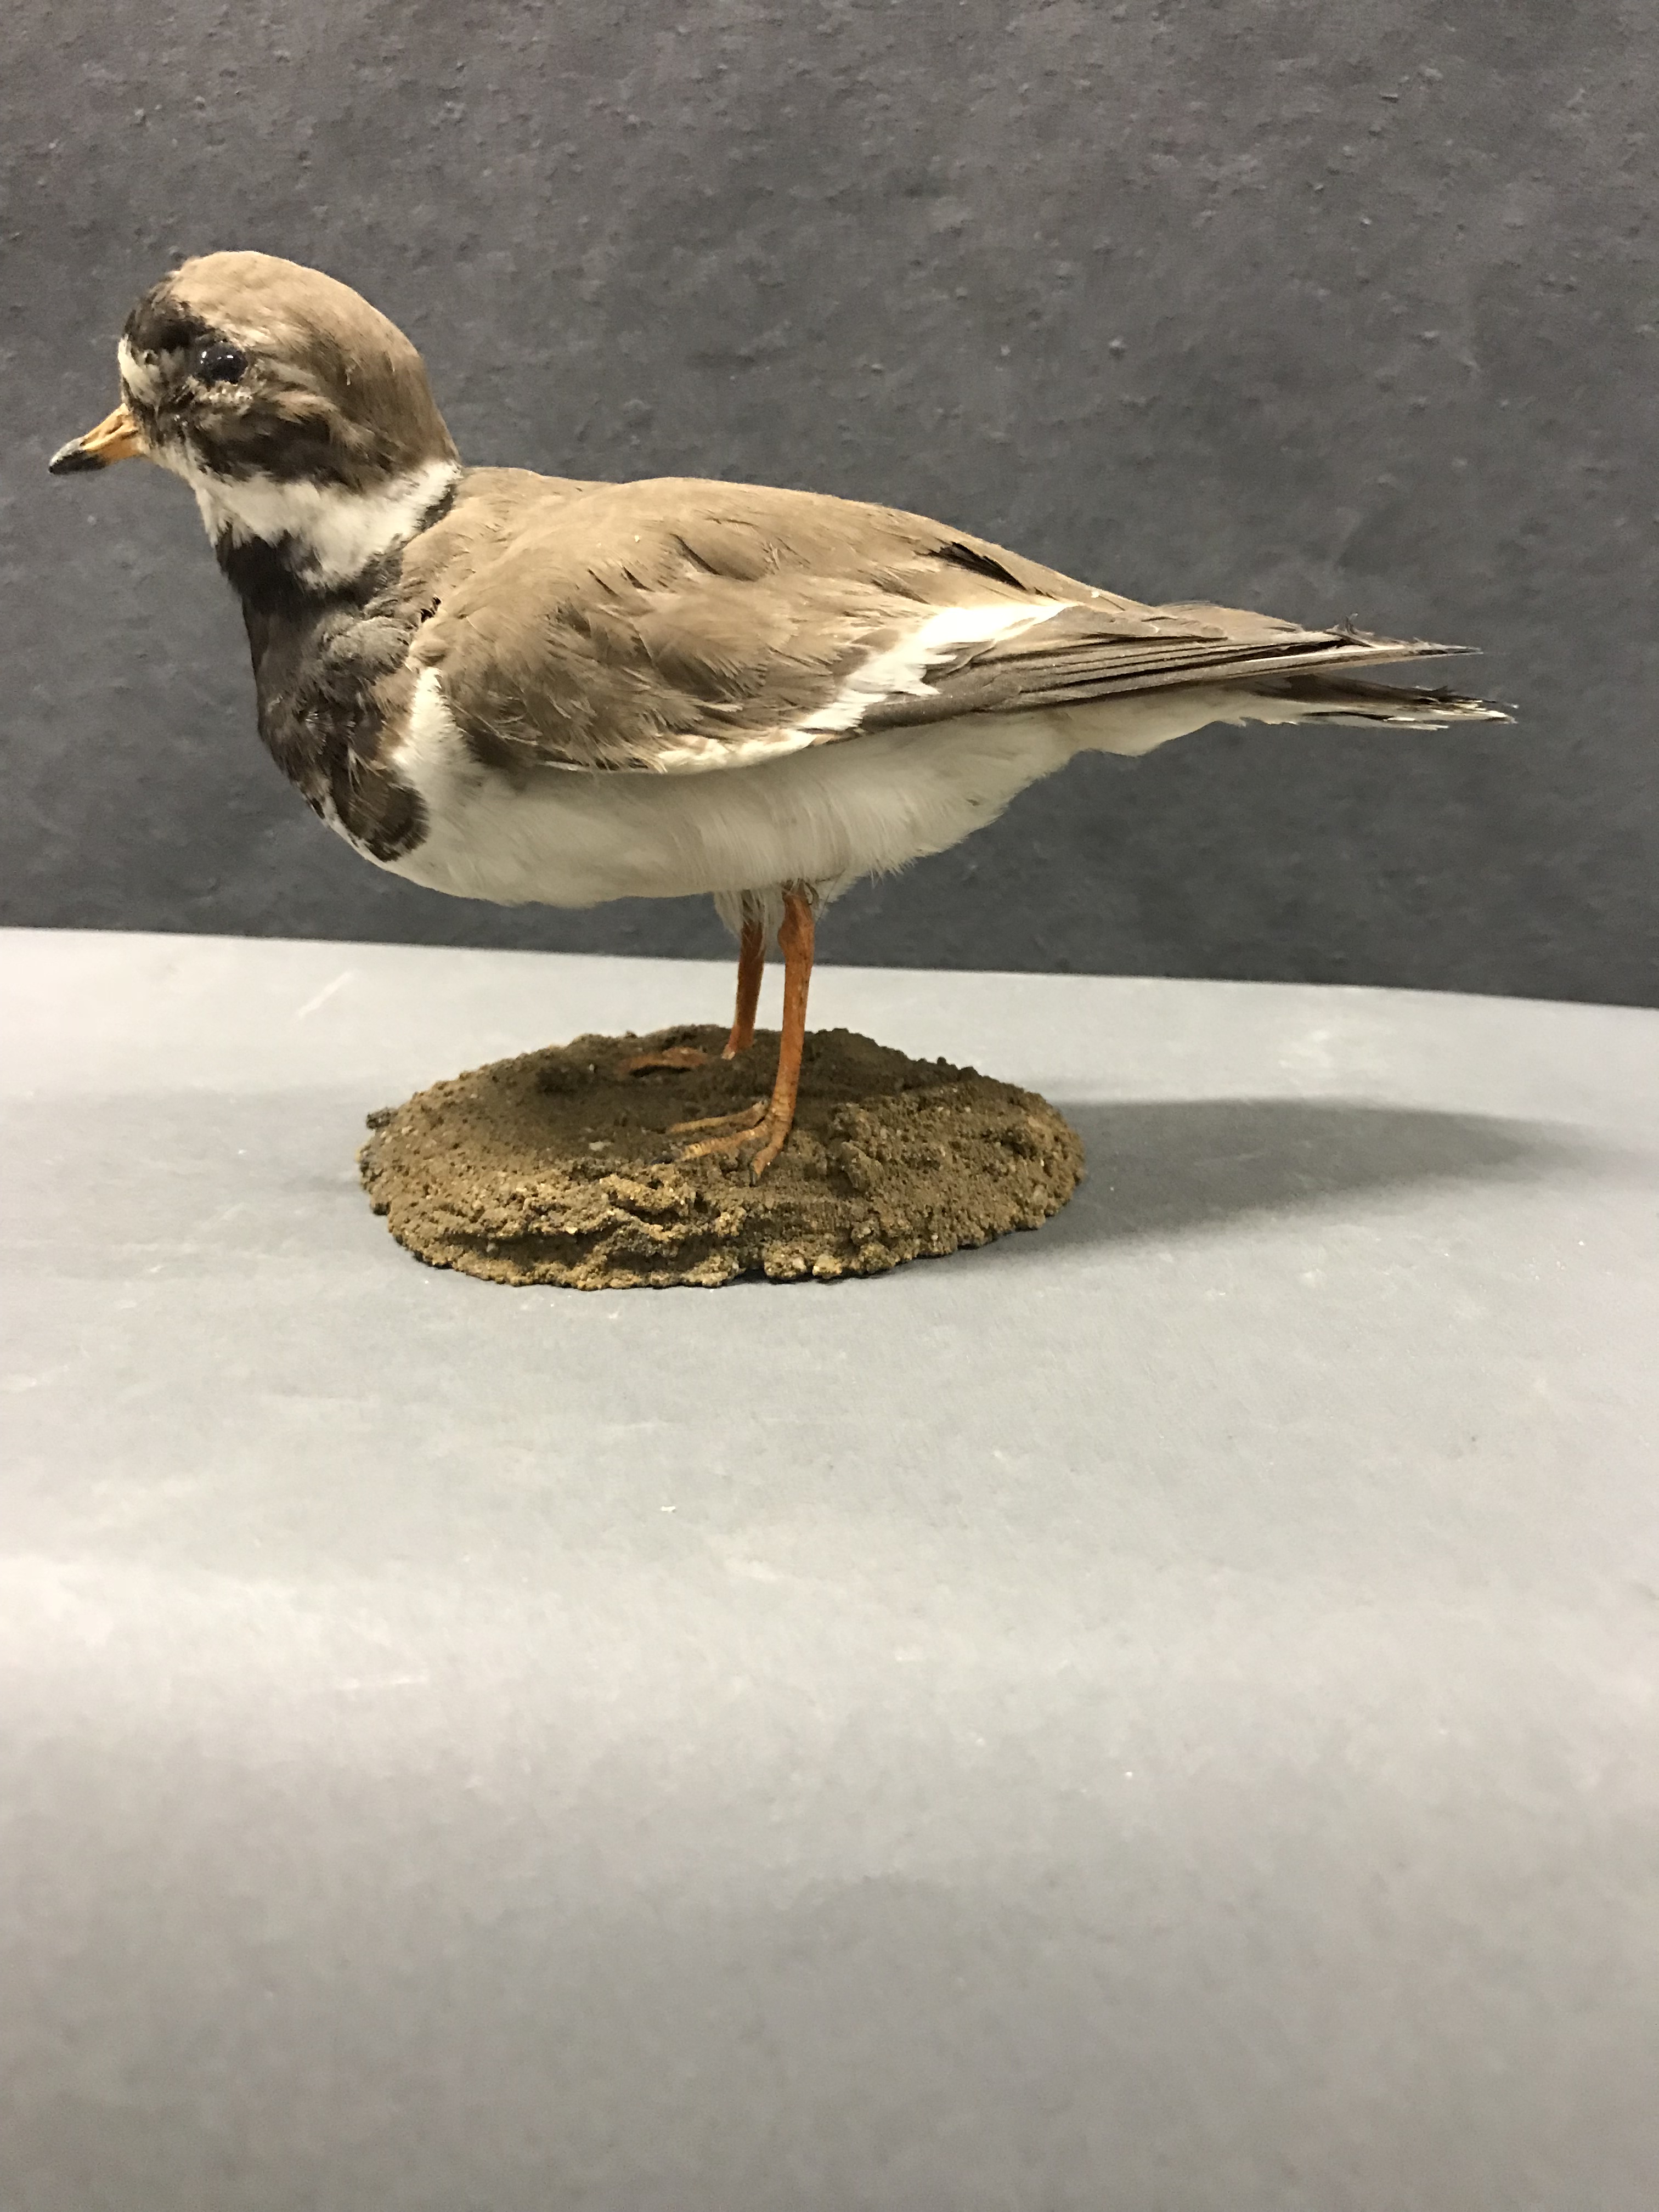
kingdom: Animalia
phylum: Chordata
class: Aves
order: Charadriiformes
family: Charadriidae
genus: Charadrius
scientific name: Charadrius hiaticula
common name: Common ringed plover
